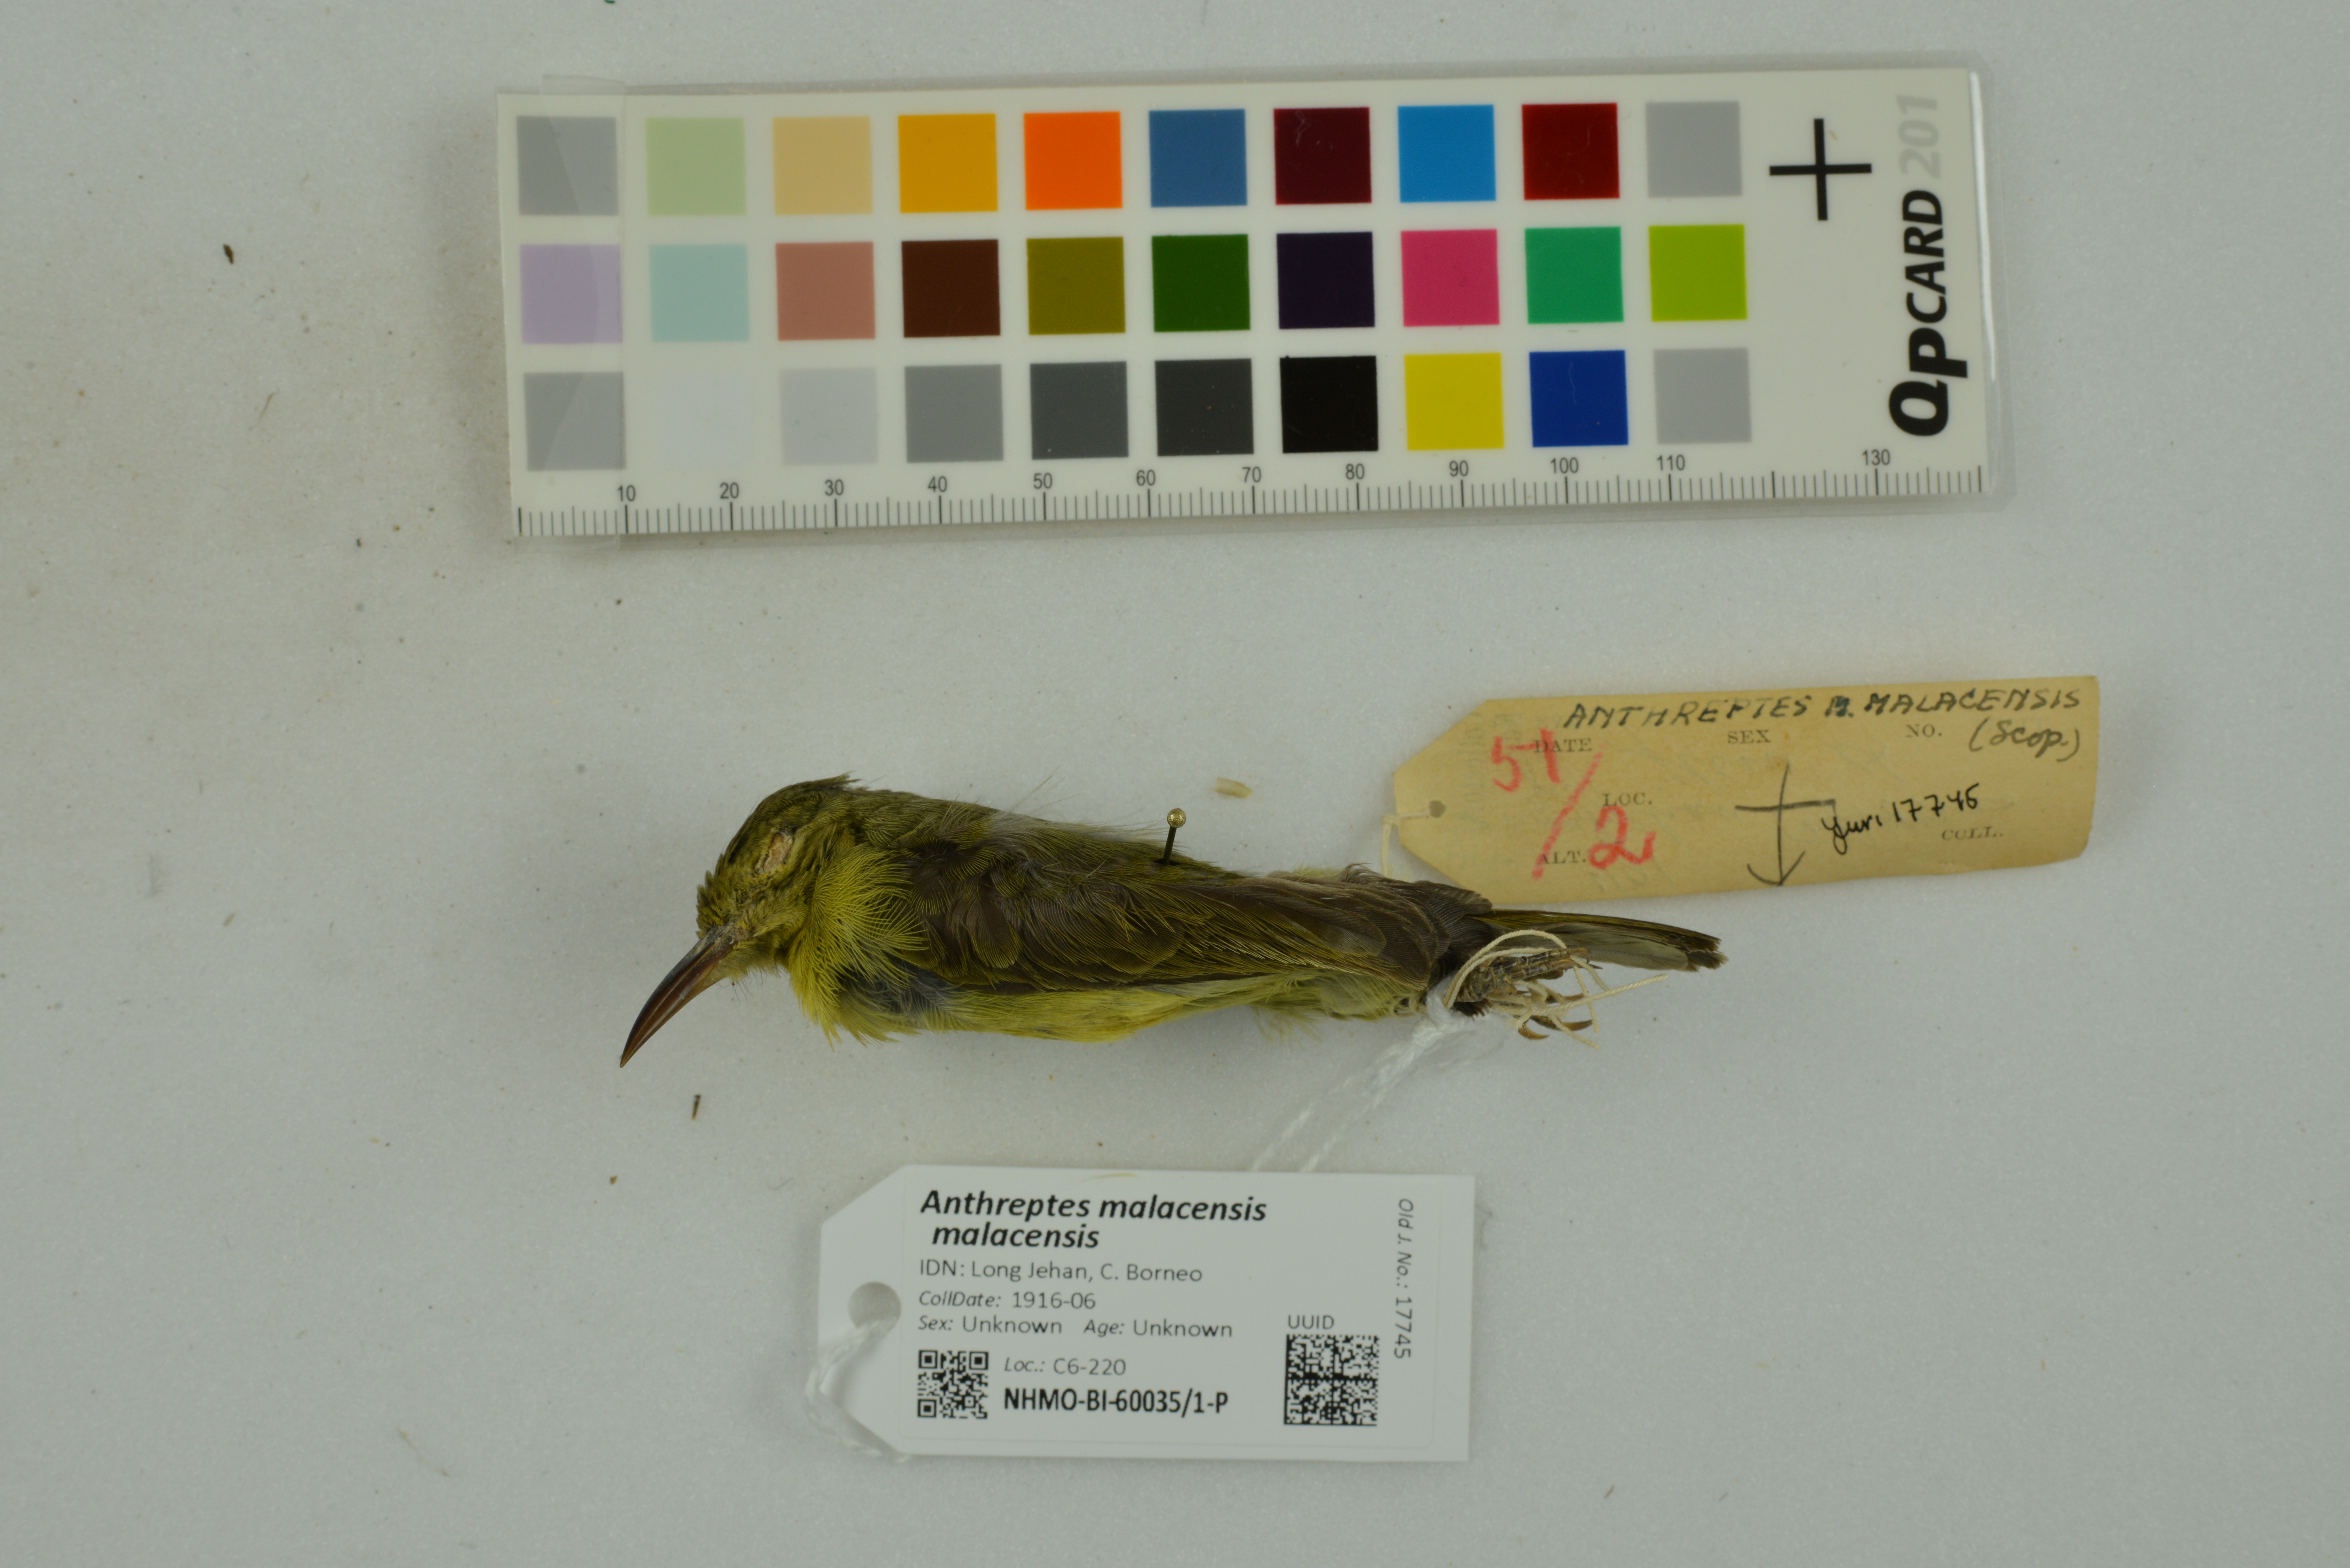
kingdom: Animalia
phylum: Chordata
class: Aves
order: Passeriformes
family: Nectariniidae
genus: Anthreptes
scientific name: Anthreptes malacensis
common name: Brown-throated sunbird
